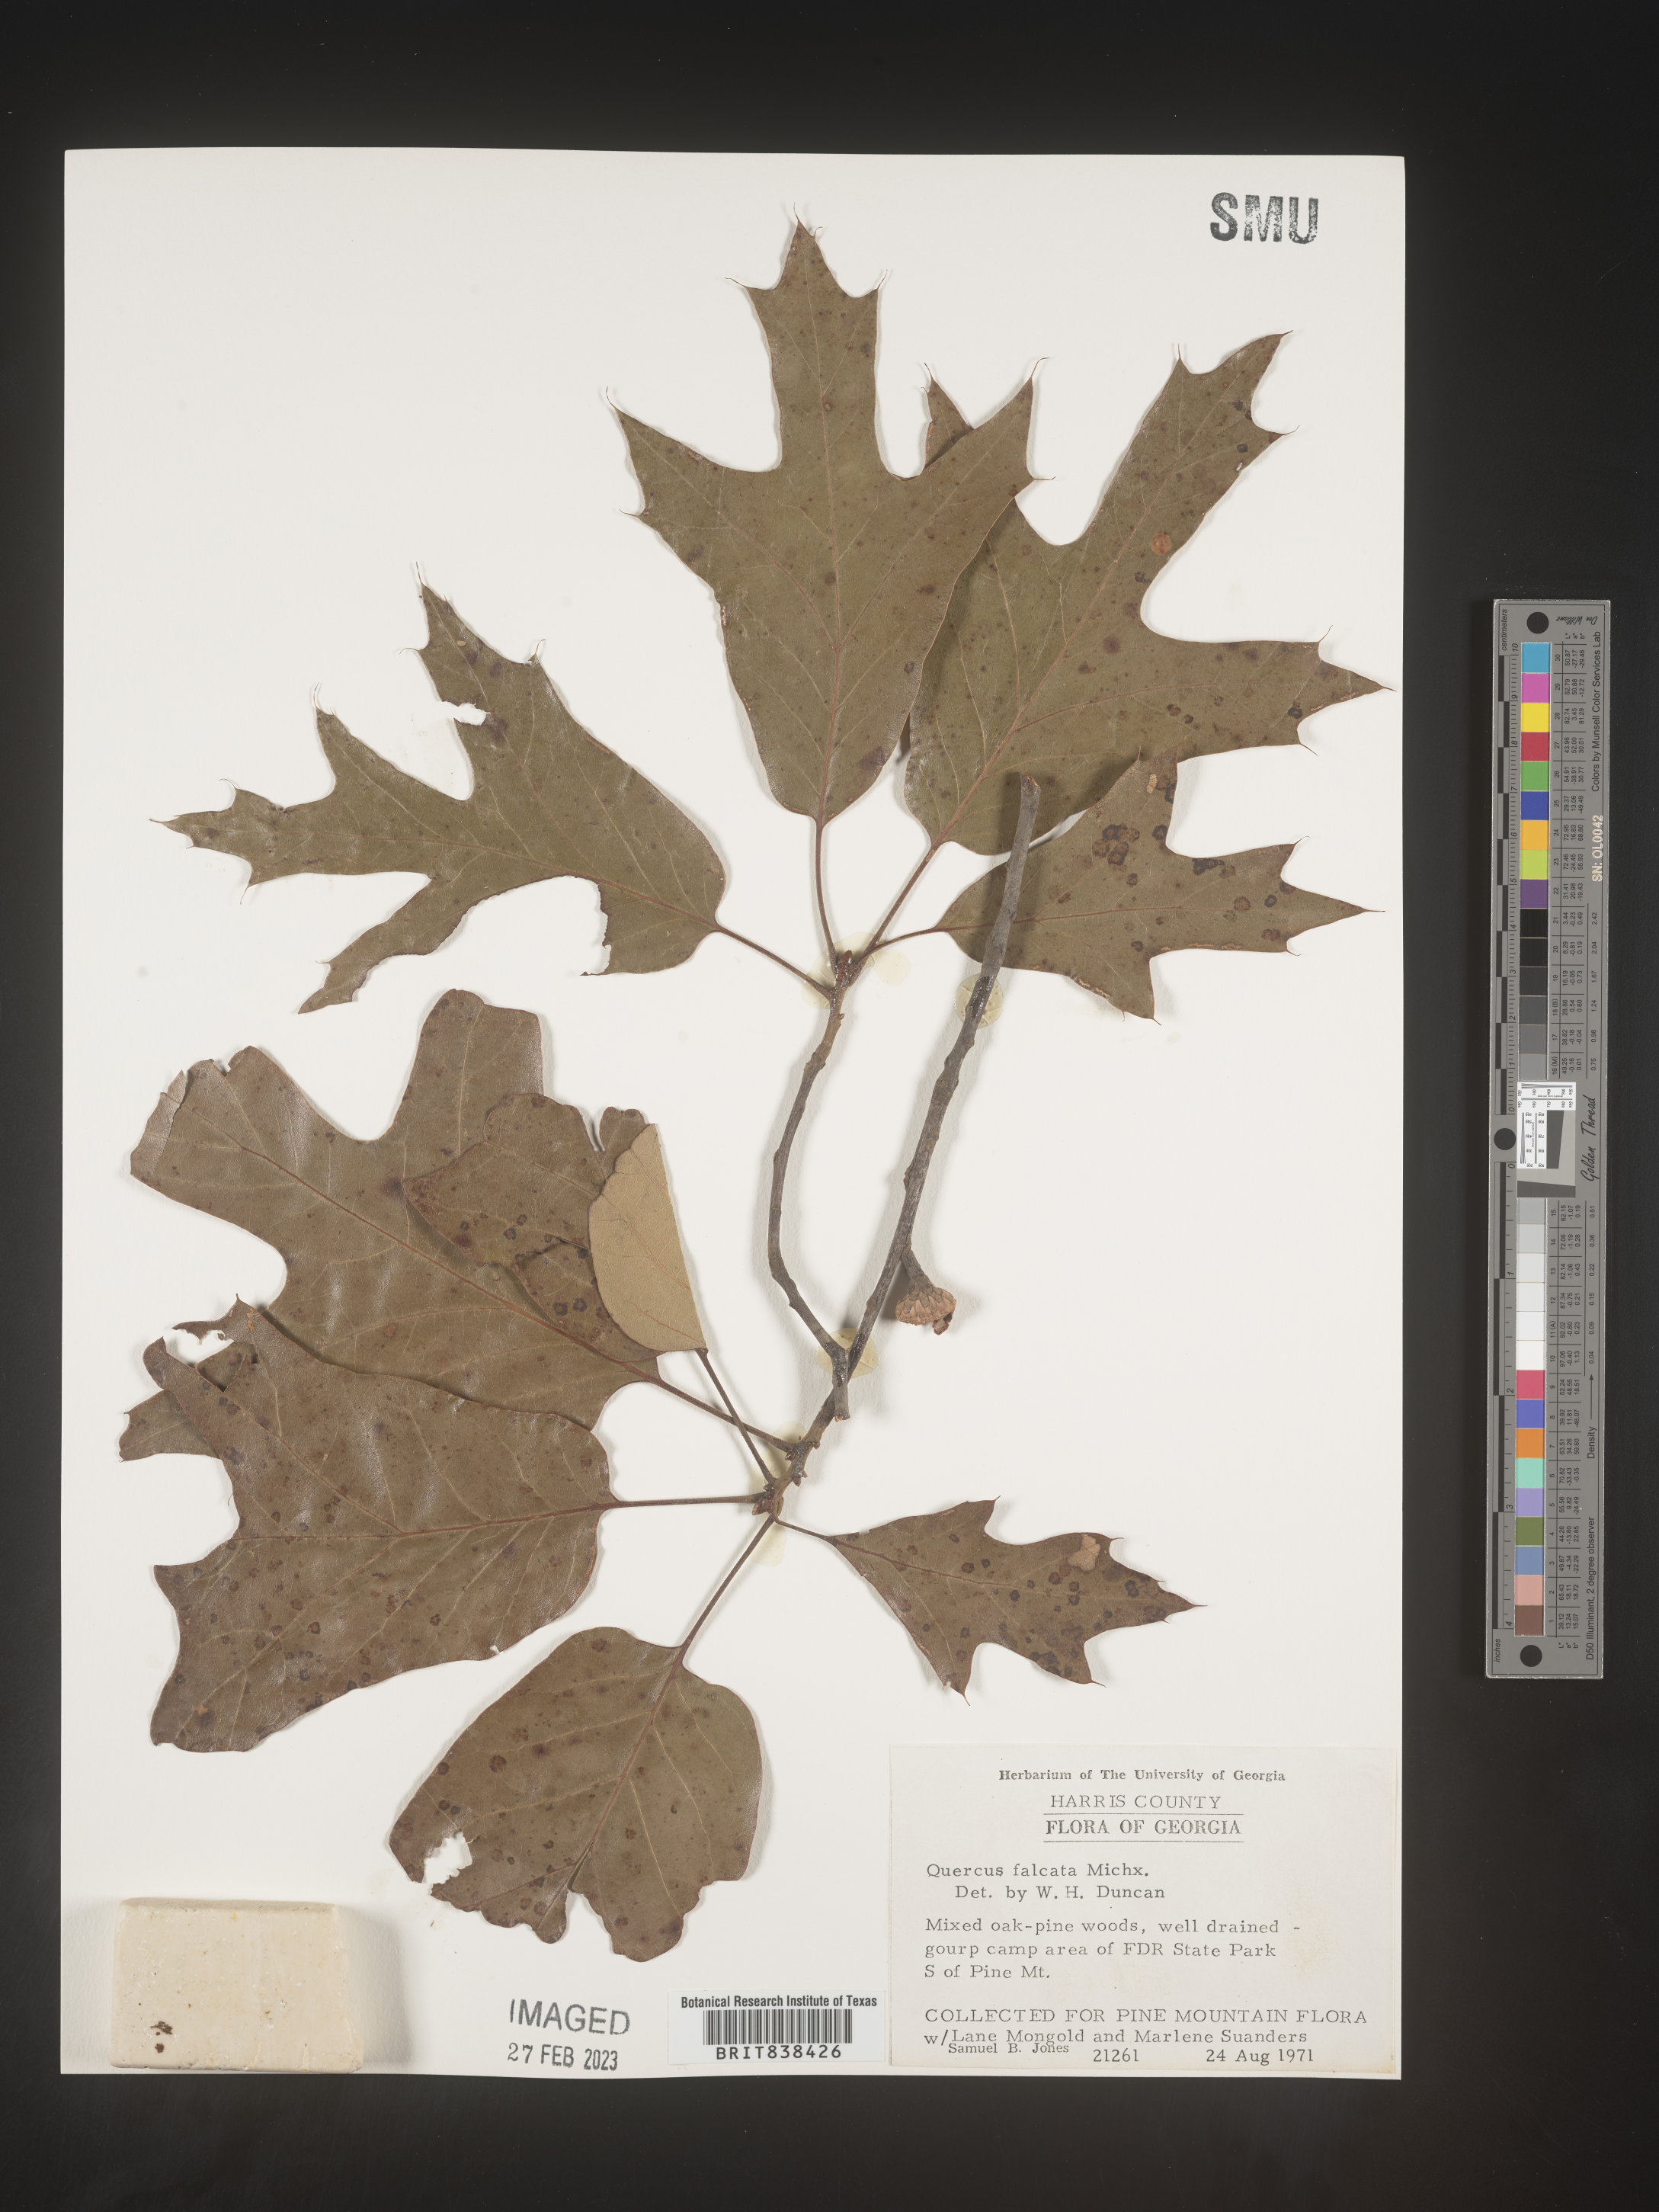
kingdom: Plantae
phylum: Tracheophyta
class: Magnoliopsida
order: Fagales
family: Fagaceae
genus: Quercus
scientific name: Quercus falcata
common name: Southern red oak
